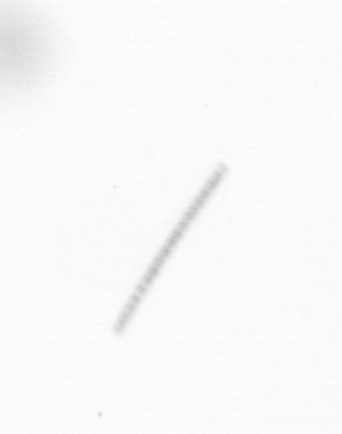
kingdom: Chromista
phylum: Ochrophyta
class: Bacillariophyceae
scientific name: Bacillariophyceae
